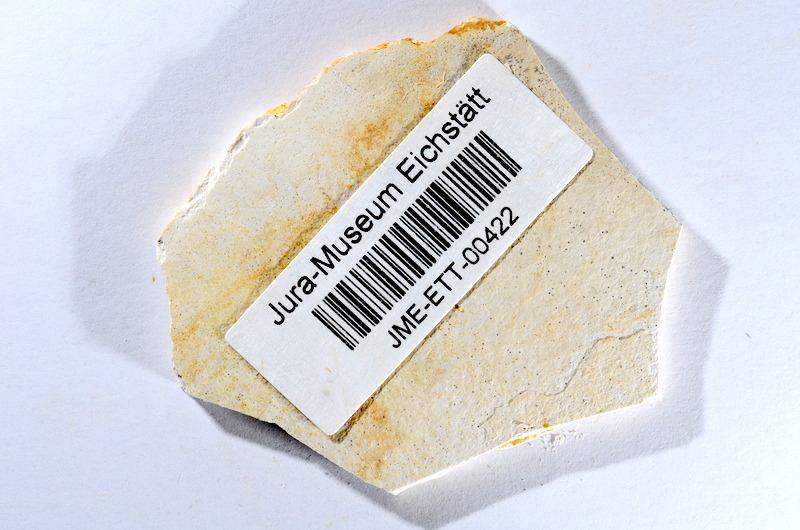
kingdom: Animalia
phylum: Chordata
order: Salmoniformes
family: Orthogonikleithridae
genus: Orthogonikleithrus
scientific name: Orthogonikleithrus hoelli
